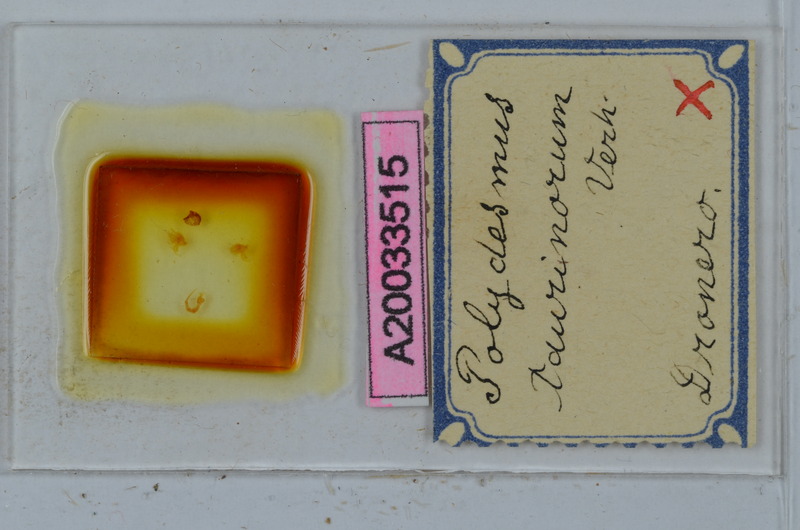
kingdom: Animalia
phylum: Arthropoda
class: Diplopoda
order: Polydesmida
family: Polydesmidae
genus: Propolydesmus
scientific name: Propolydesmus testaceus
